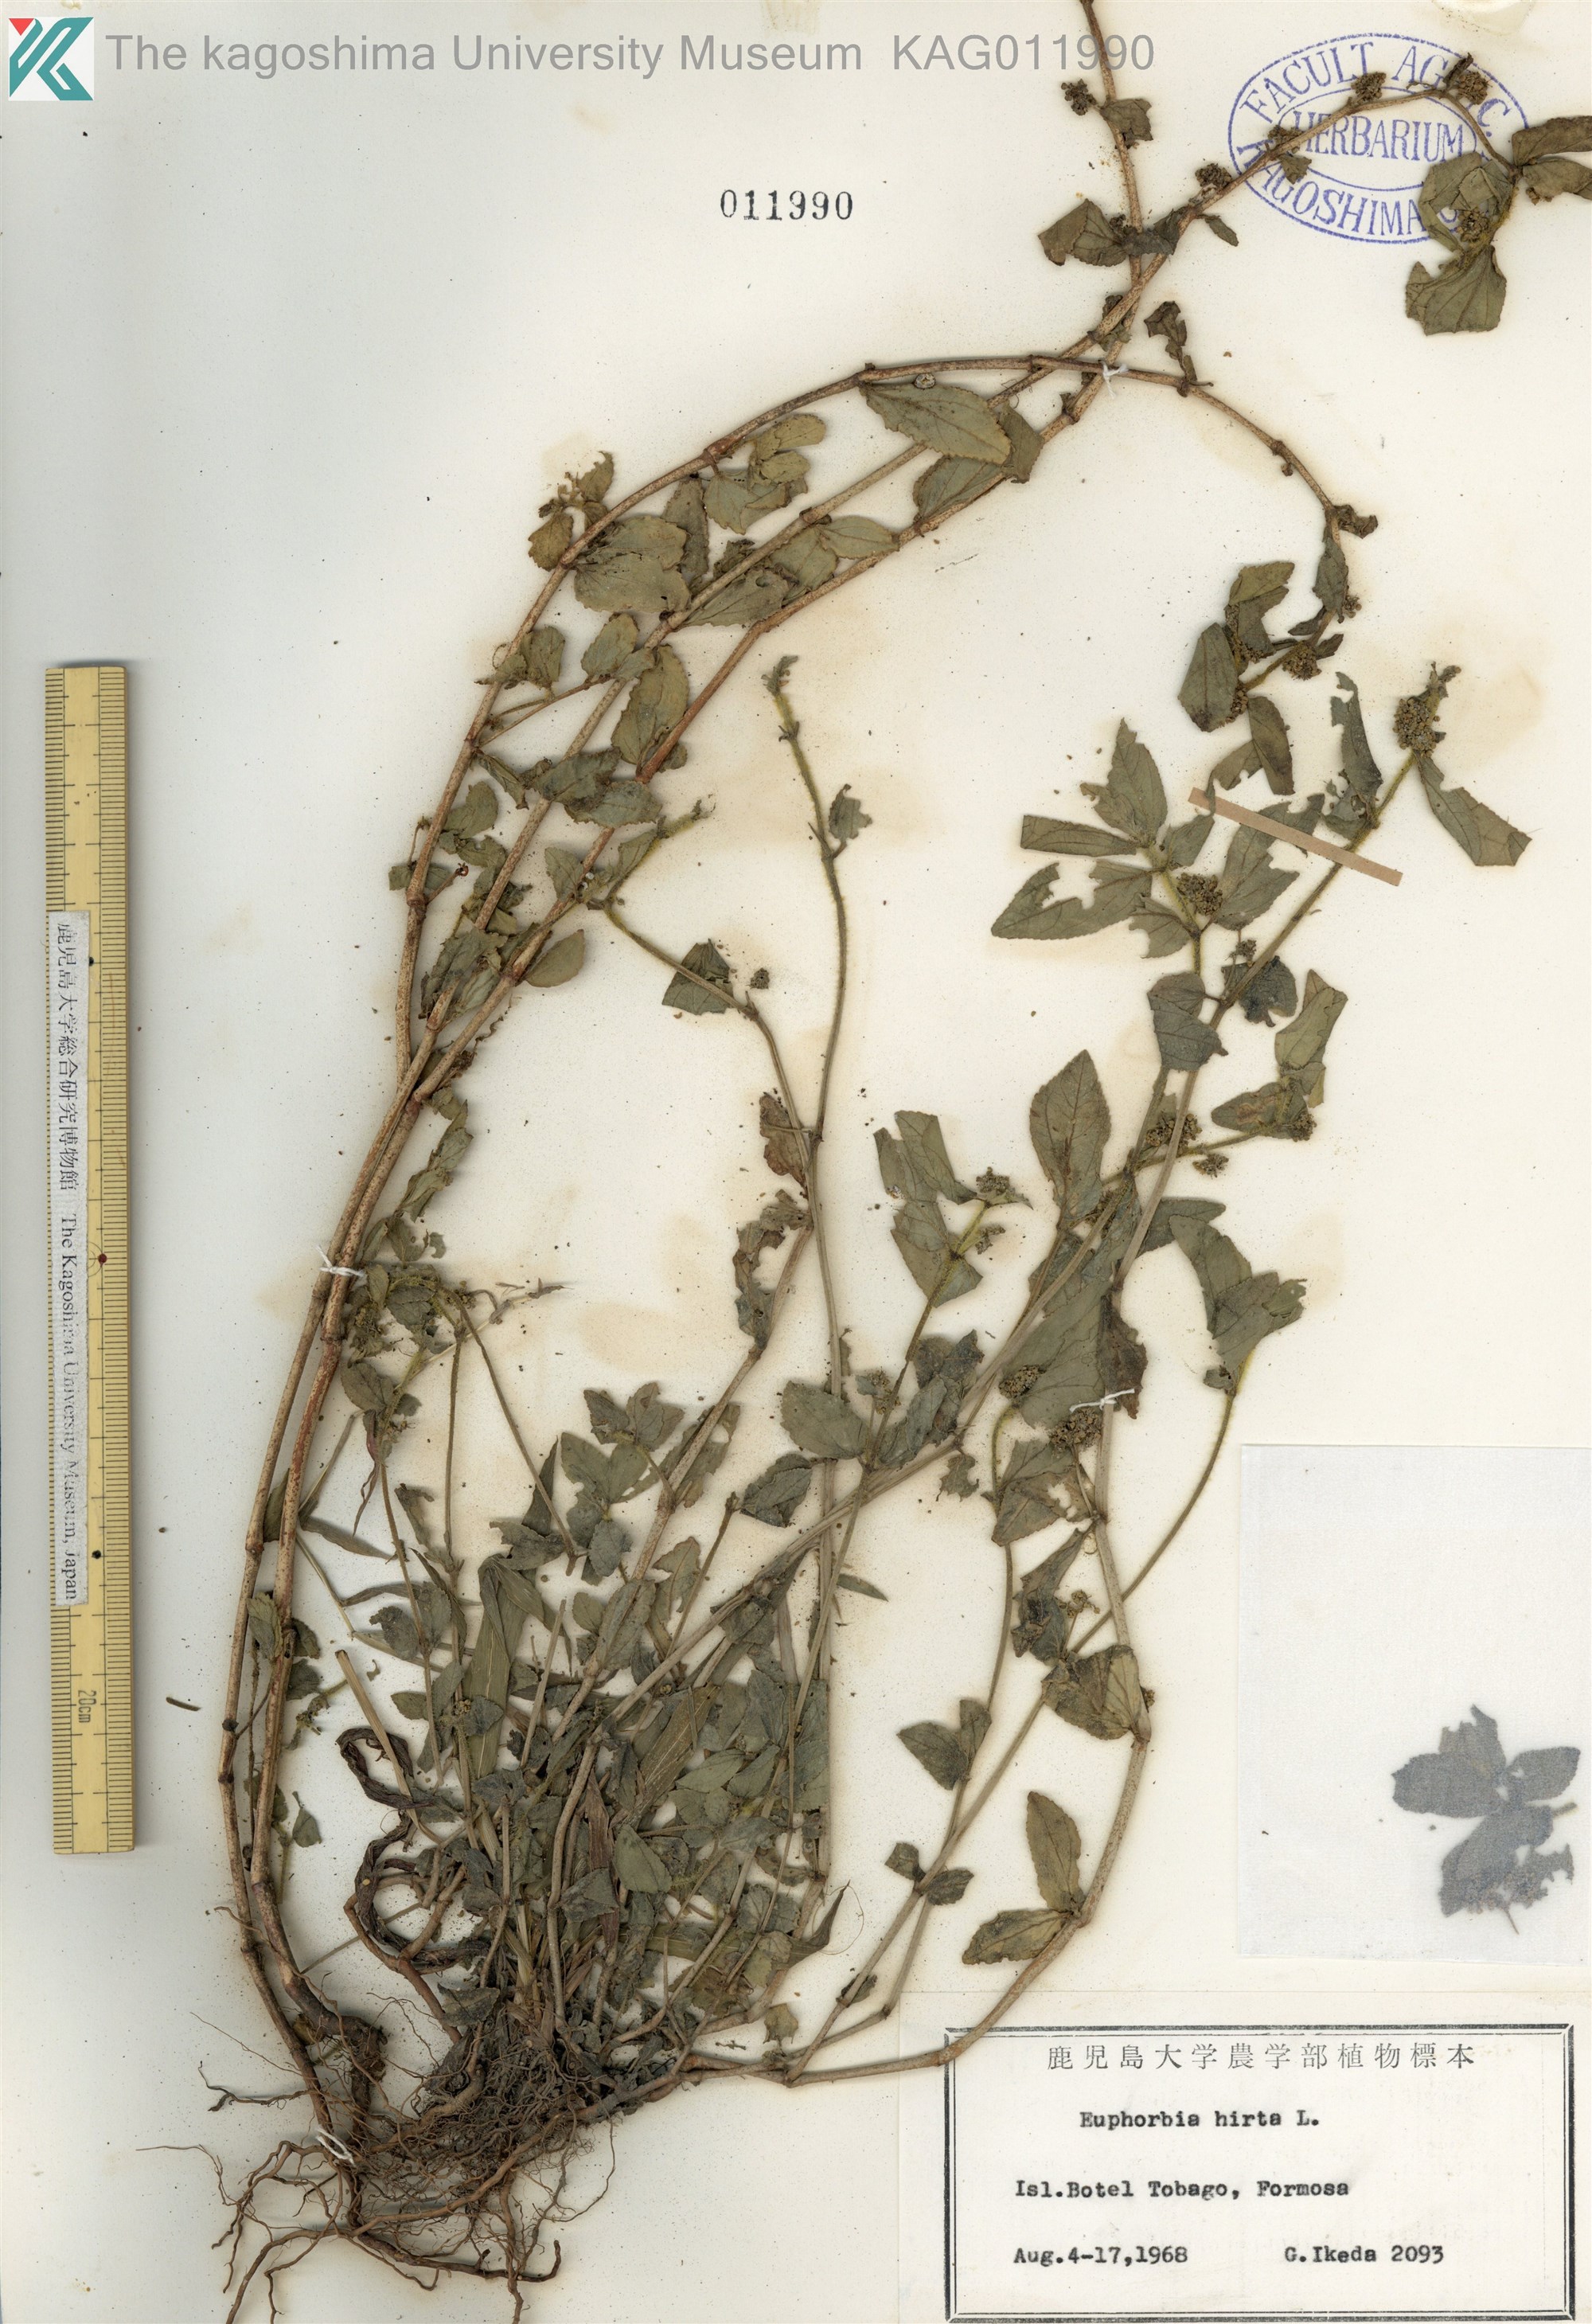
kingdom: Plantae
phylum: Tracheophyta
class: Magnoliopsida
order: Malpighiales
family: Euphorbiaceae
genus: Euphorbia
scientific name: Euphorbia hirta
